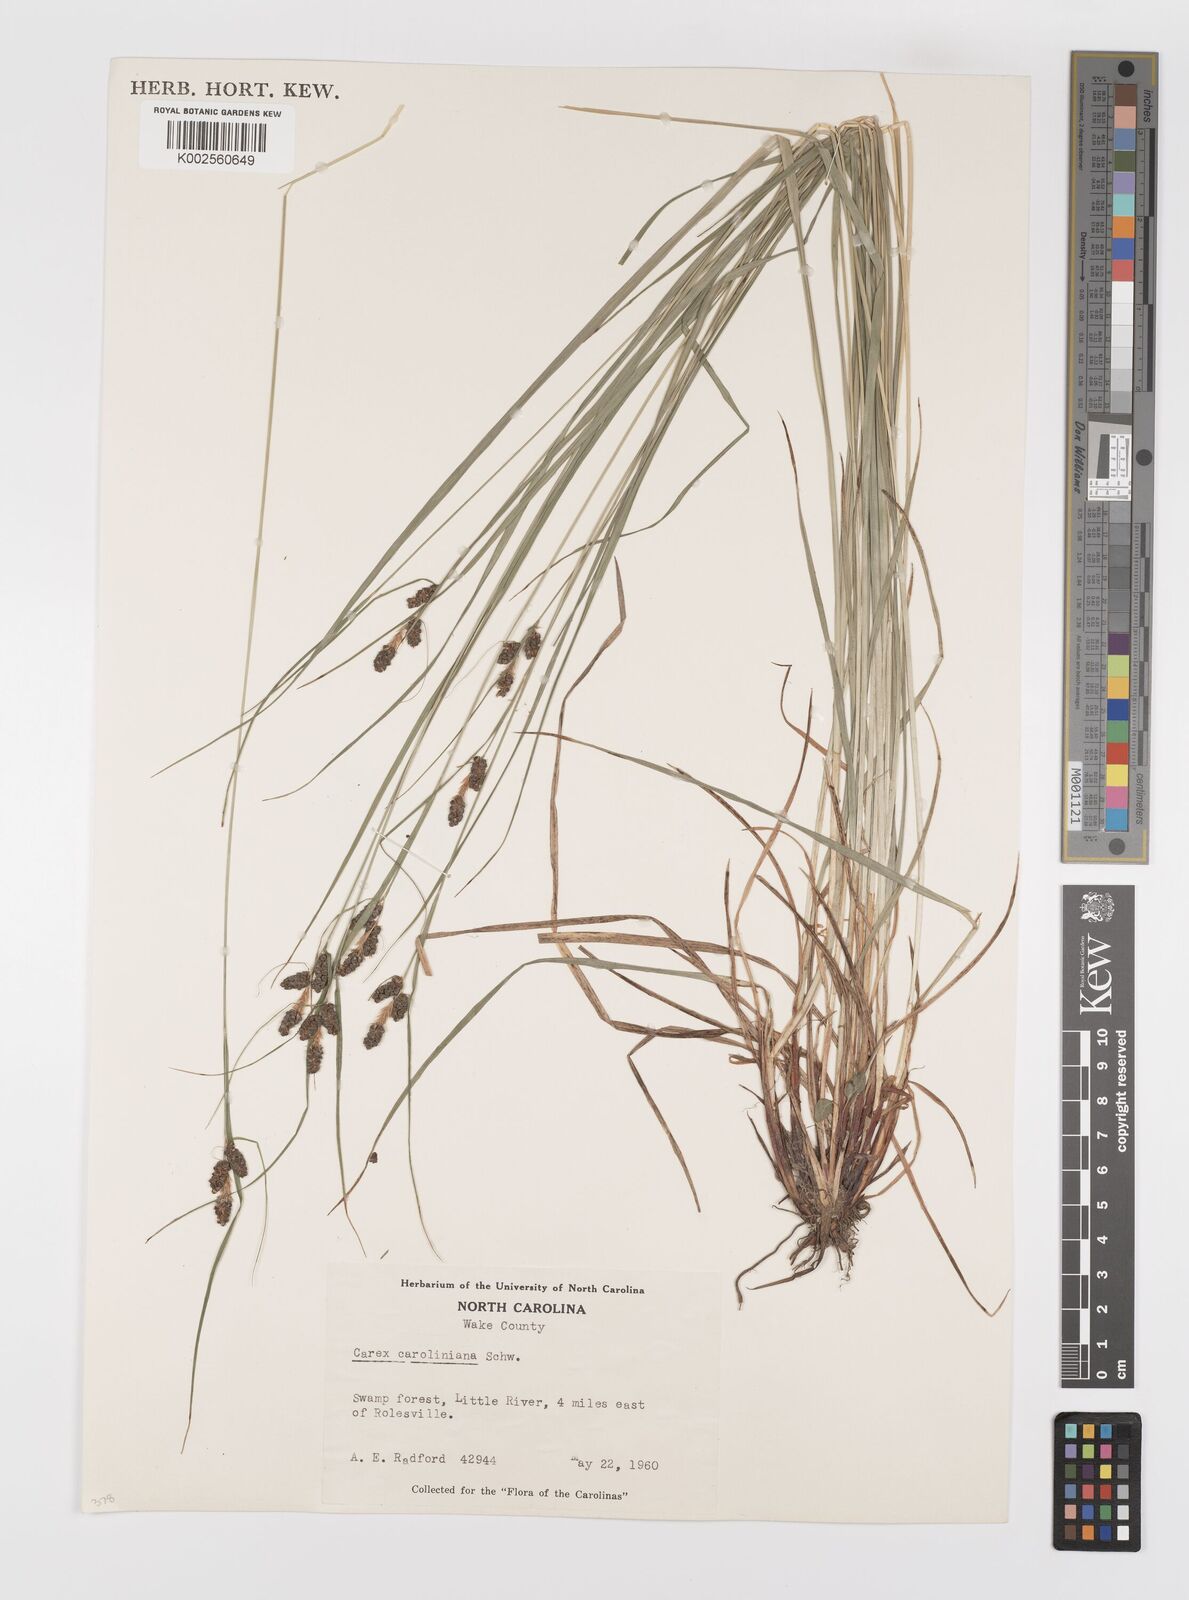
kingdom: Plantae
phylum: Tracheophyta
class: Liliopsida
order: Poales
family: Cyperaceae
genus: Carex
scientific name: Carex caroliniana
